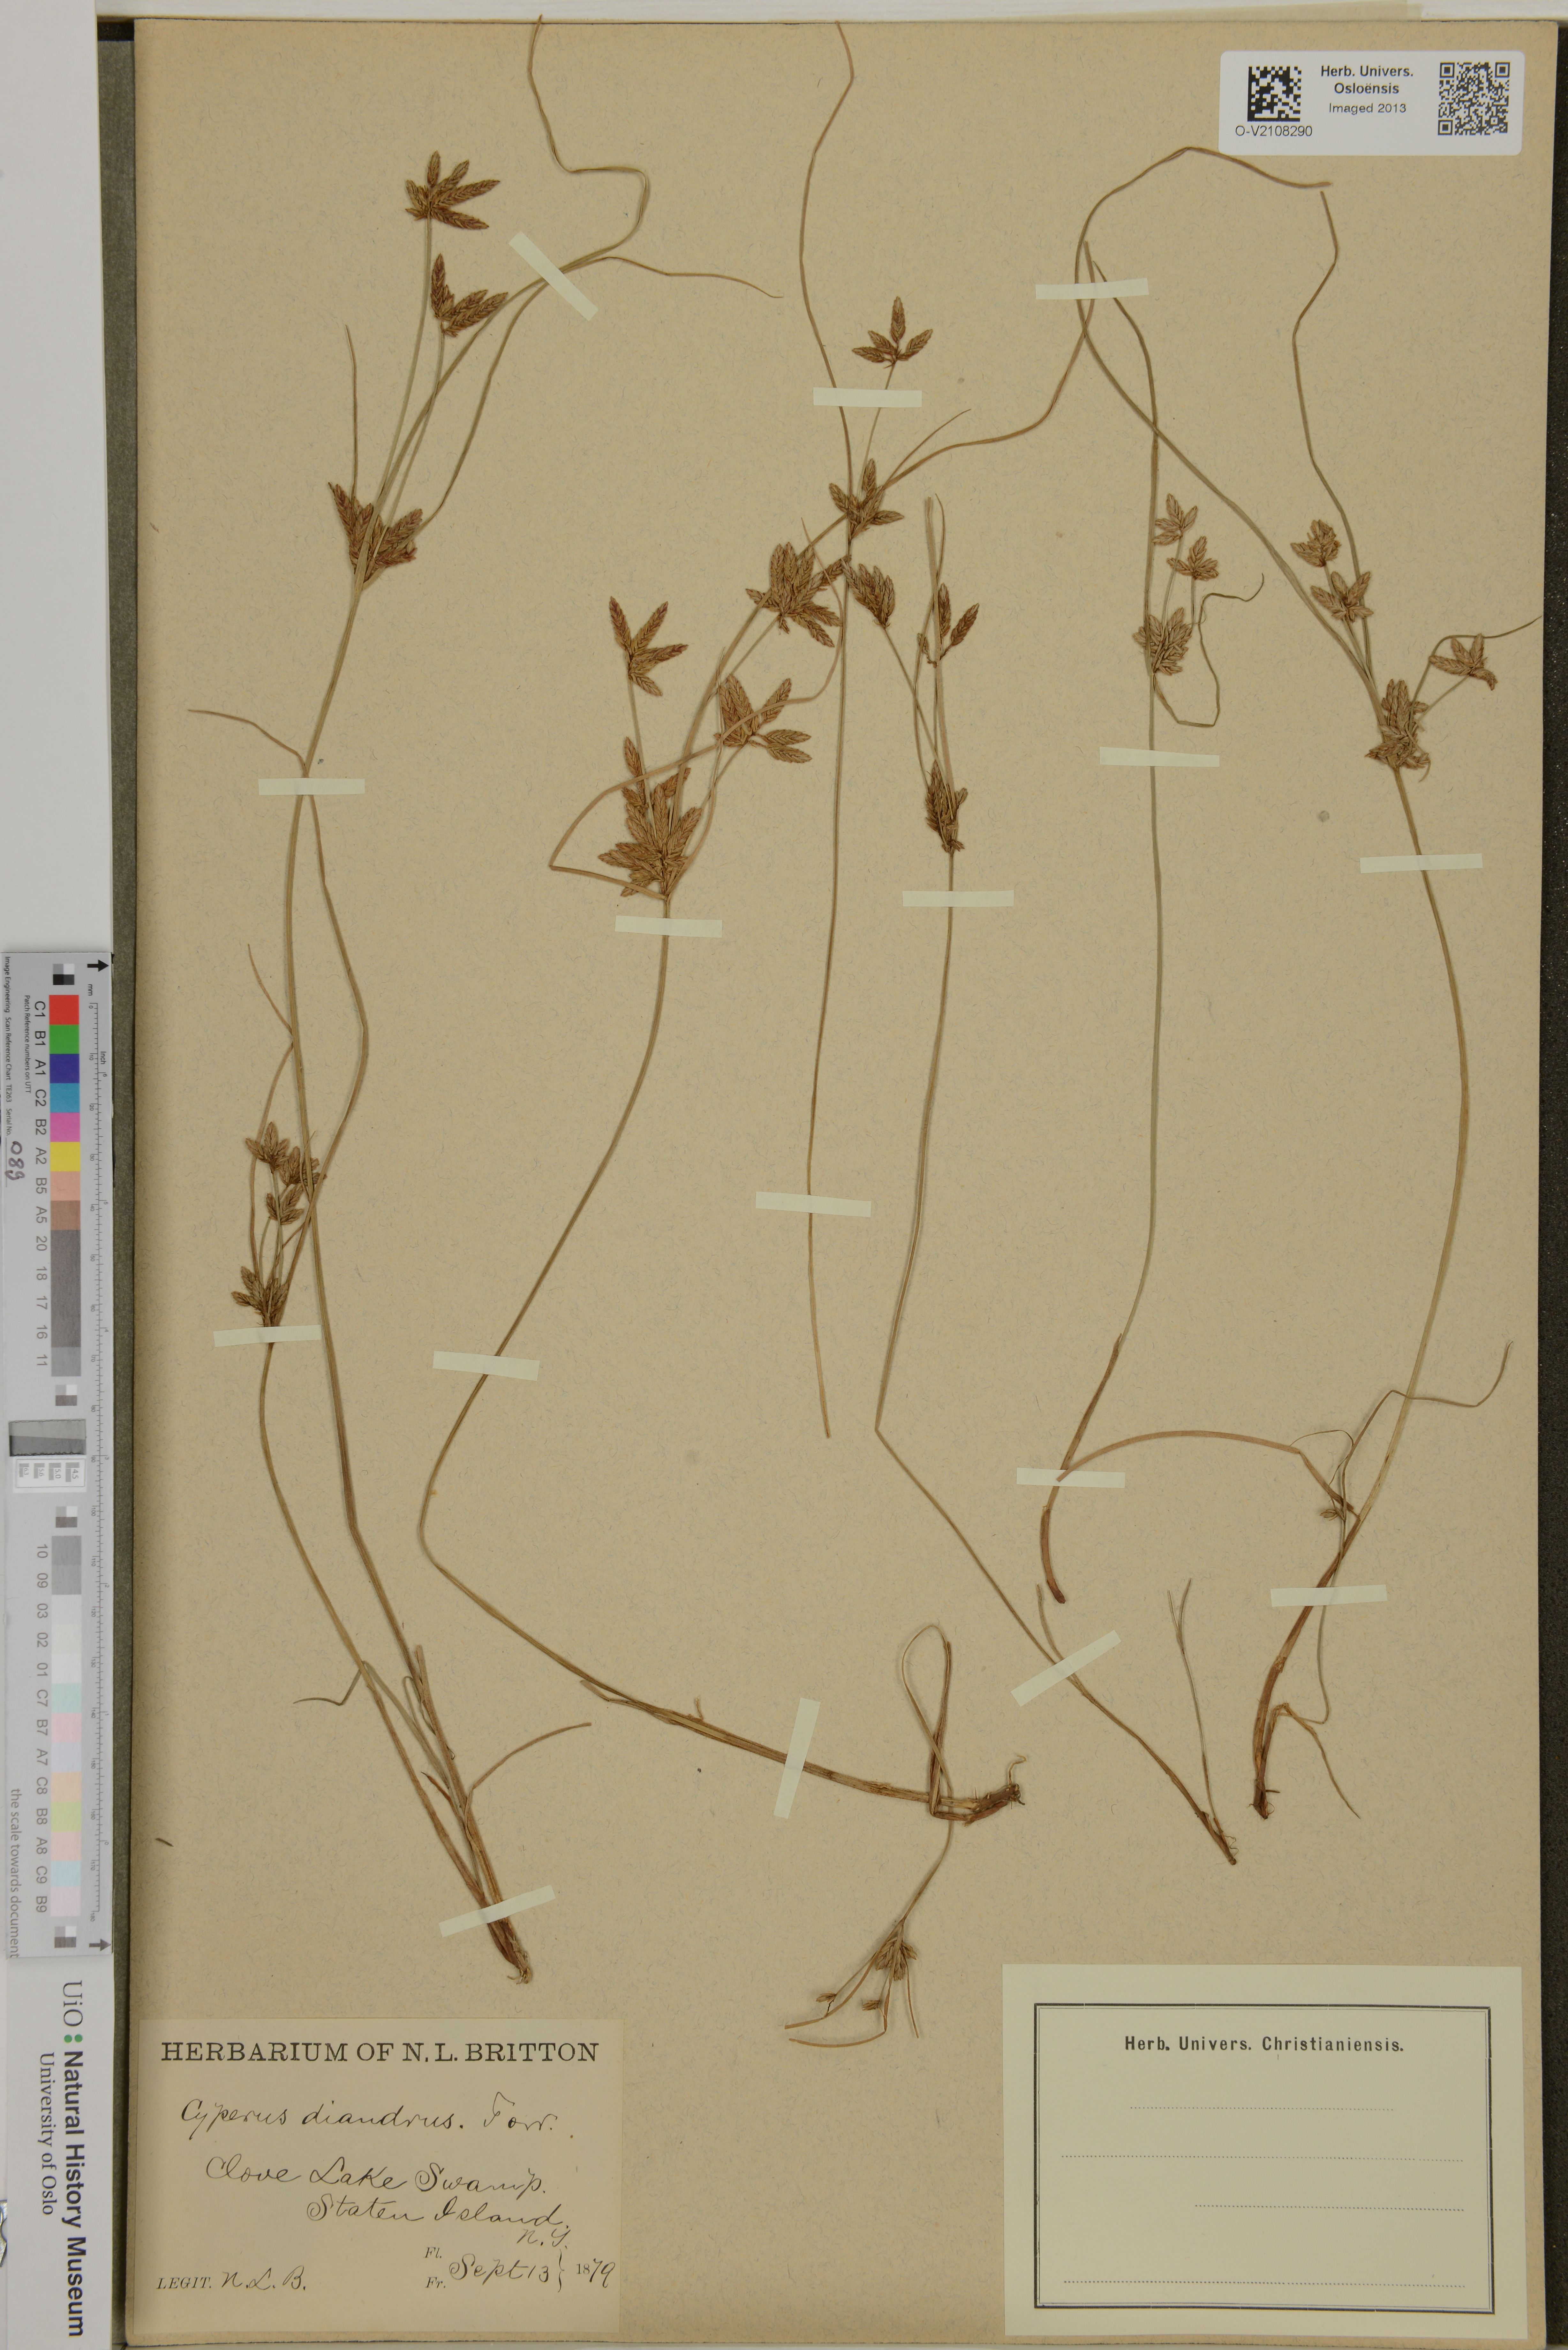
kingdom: Plantae
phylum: Tracheophyta
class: Liliopsida
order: Poales
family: Cyperaceae
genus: Cyperus
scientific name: Cyperus diandrus
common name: Low cyperus
